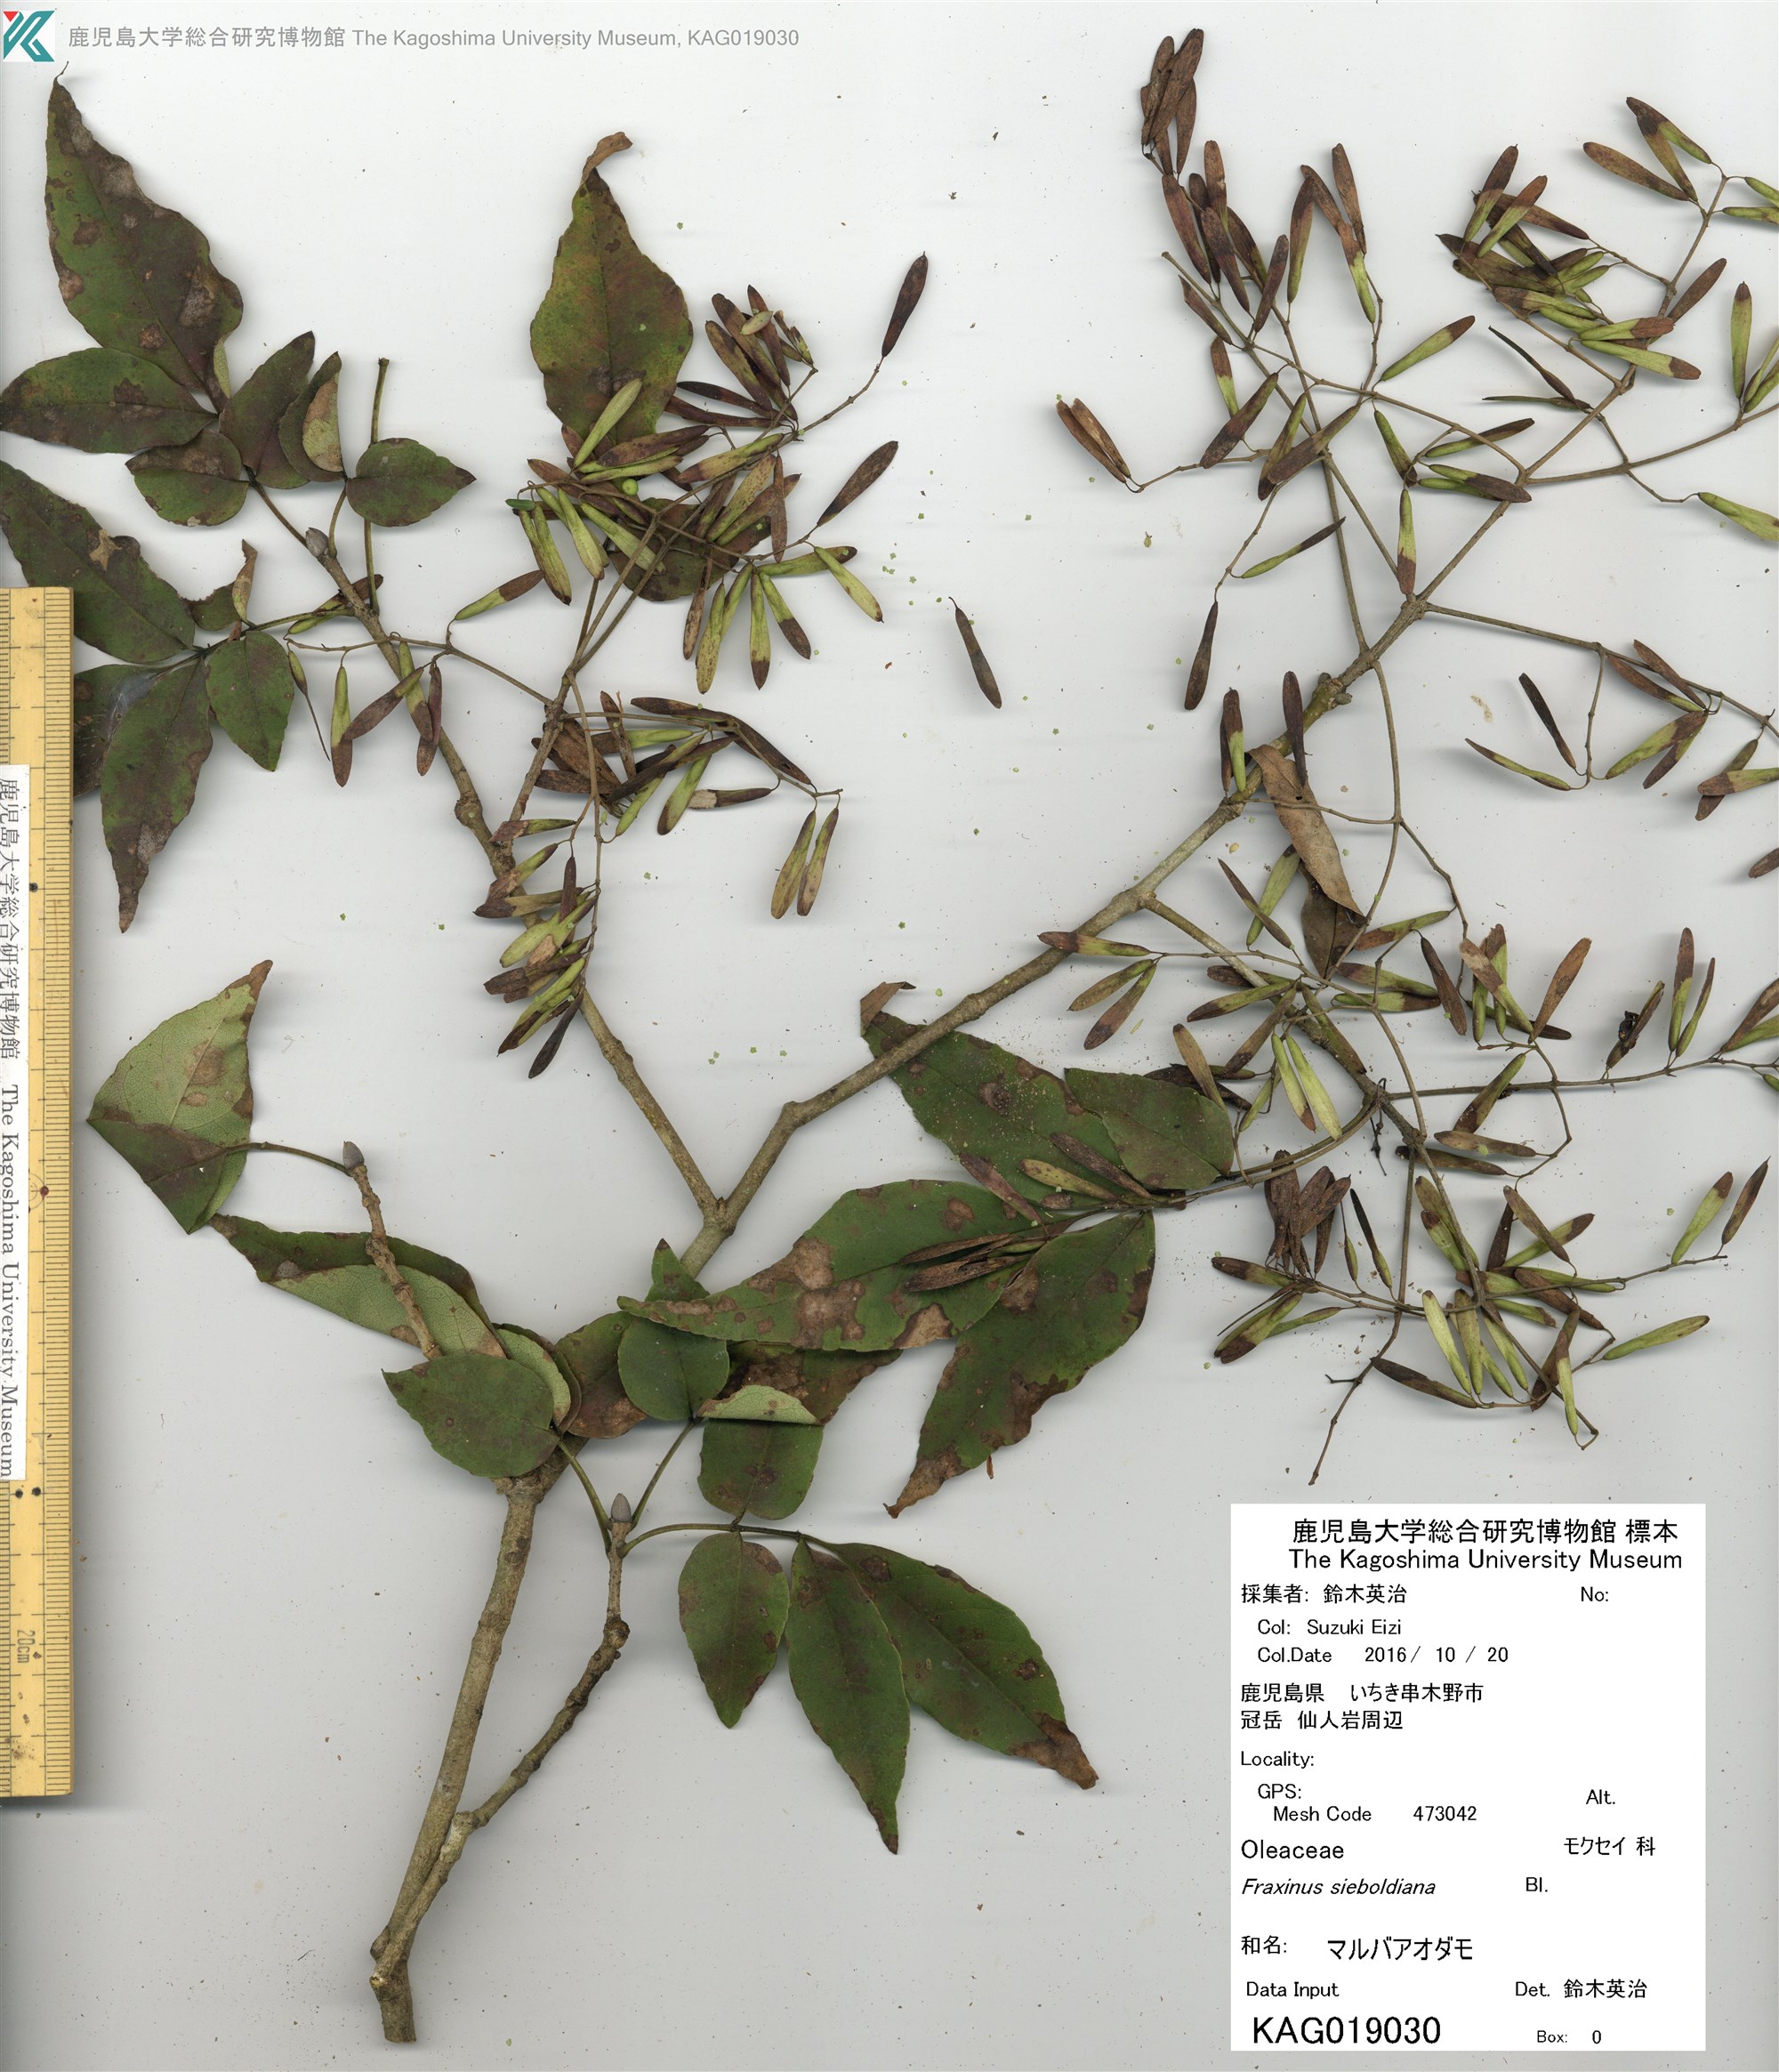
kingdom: Plantae
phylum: Tracheophyta
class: Magnoliopsida
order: Lamiales
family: Oleaceae
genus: Fraxinus
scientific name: Fraxinus sieboldiana
